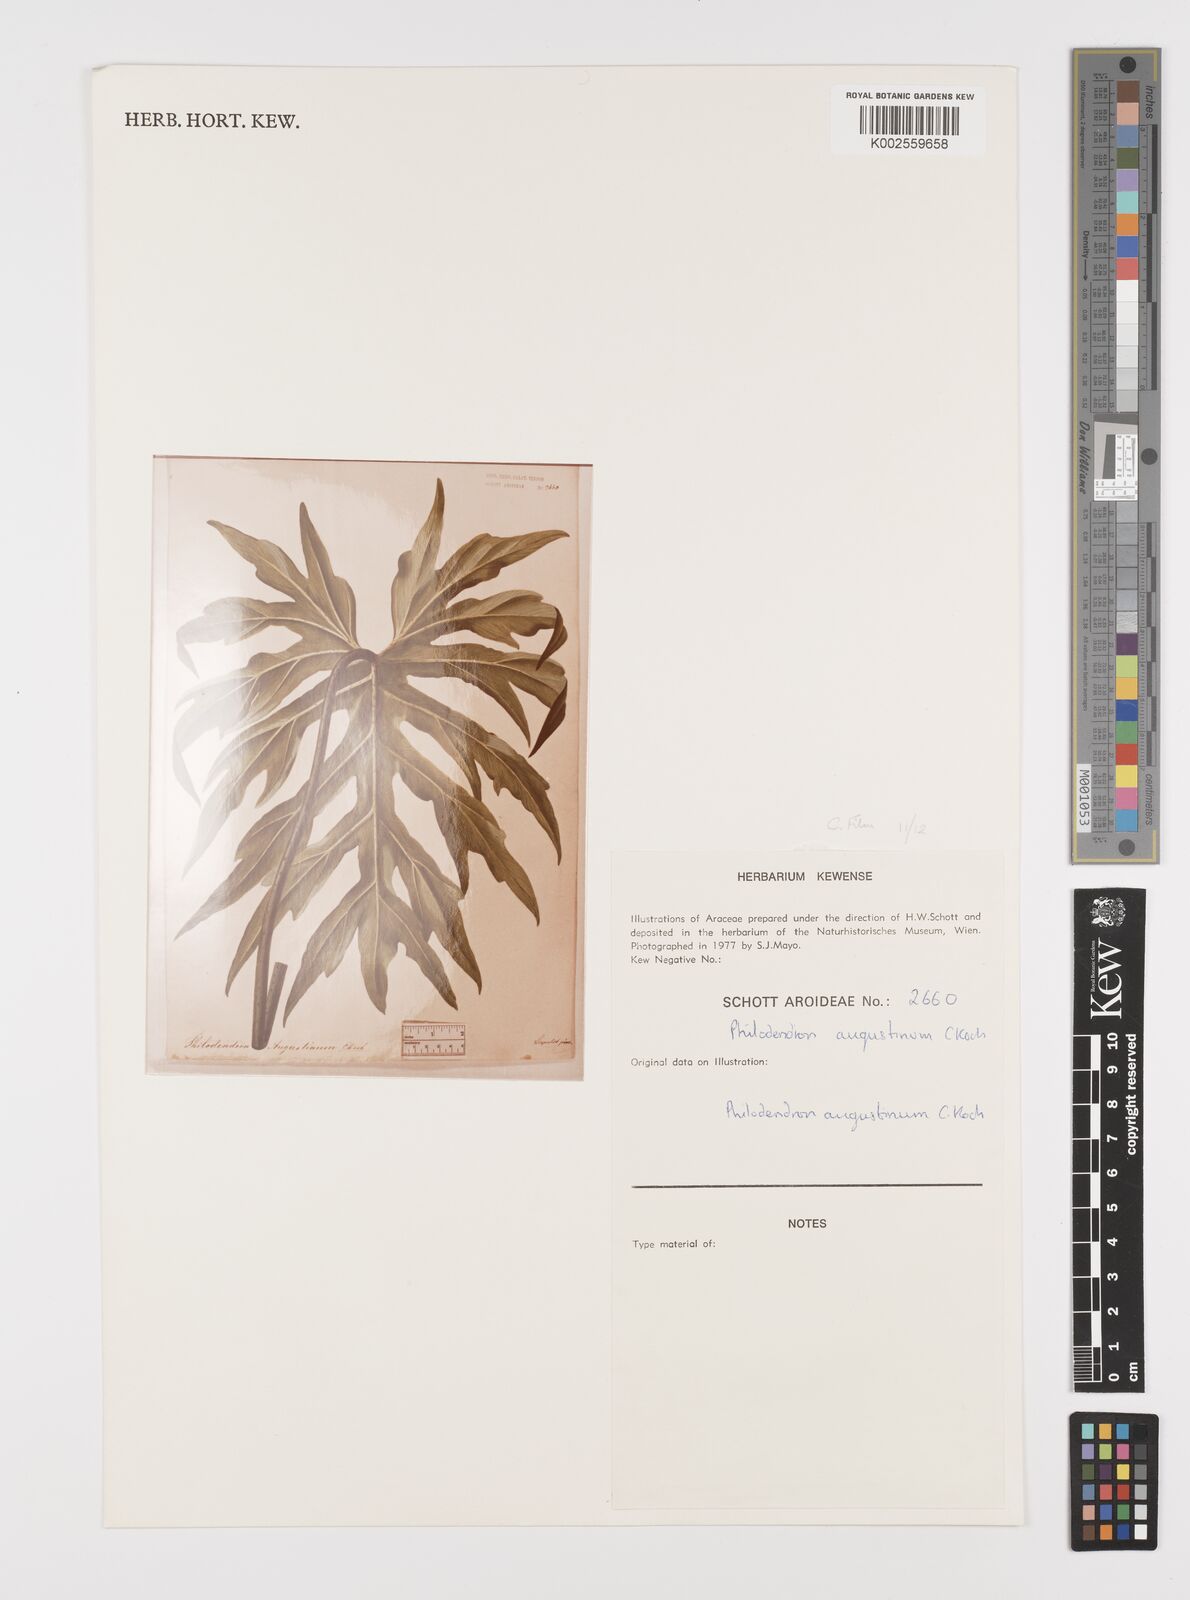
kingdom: Plantae
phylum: Tracheophyta
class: Liliopsida
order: Alismatales
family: Araceae
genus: Philodendron
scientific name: Philodendron radiatum
